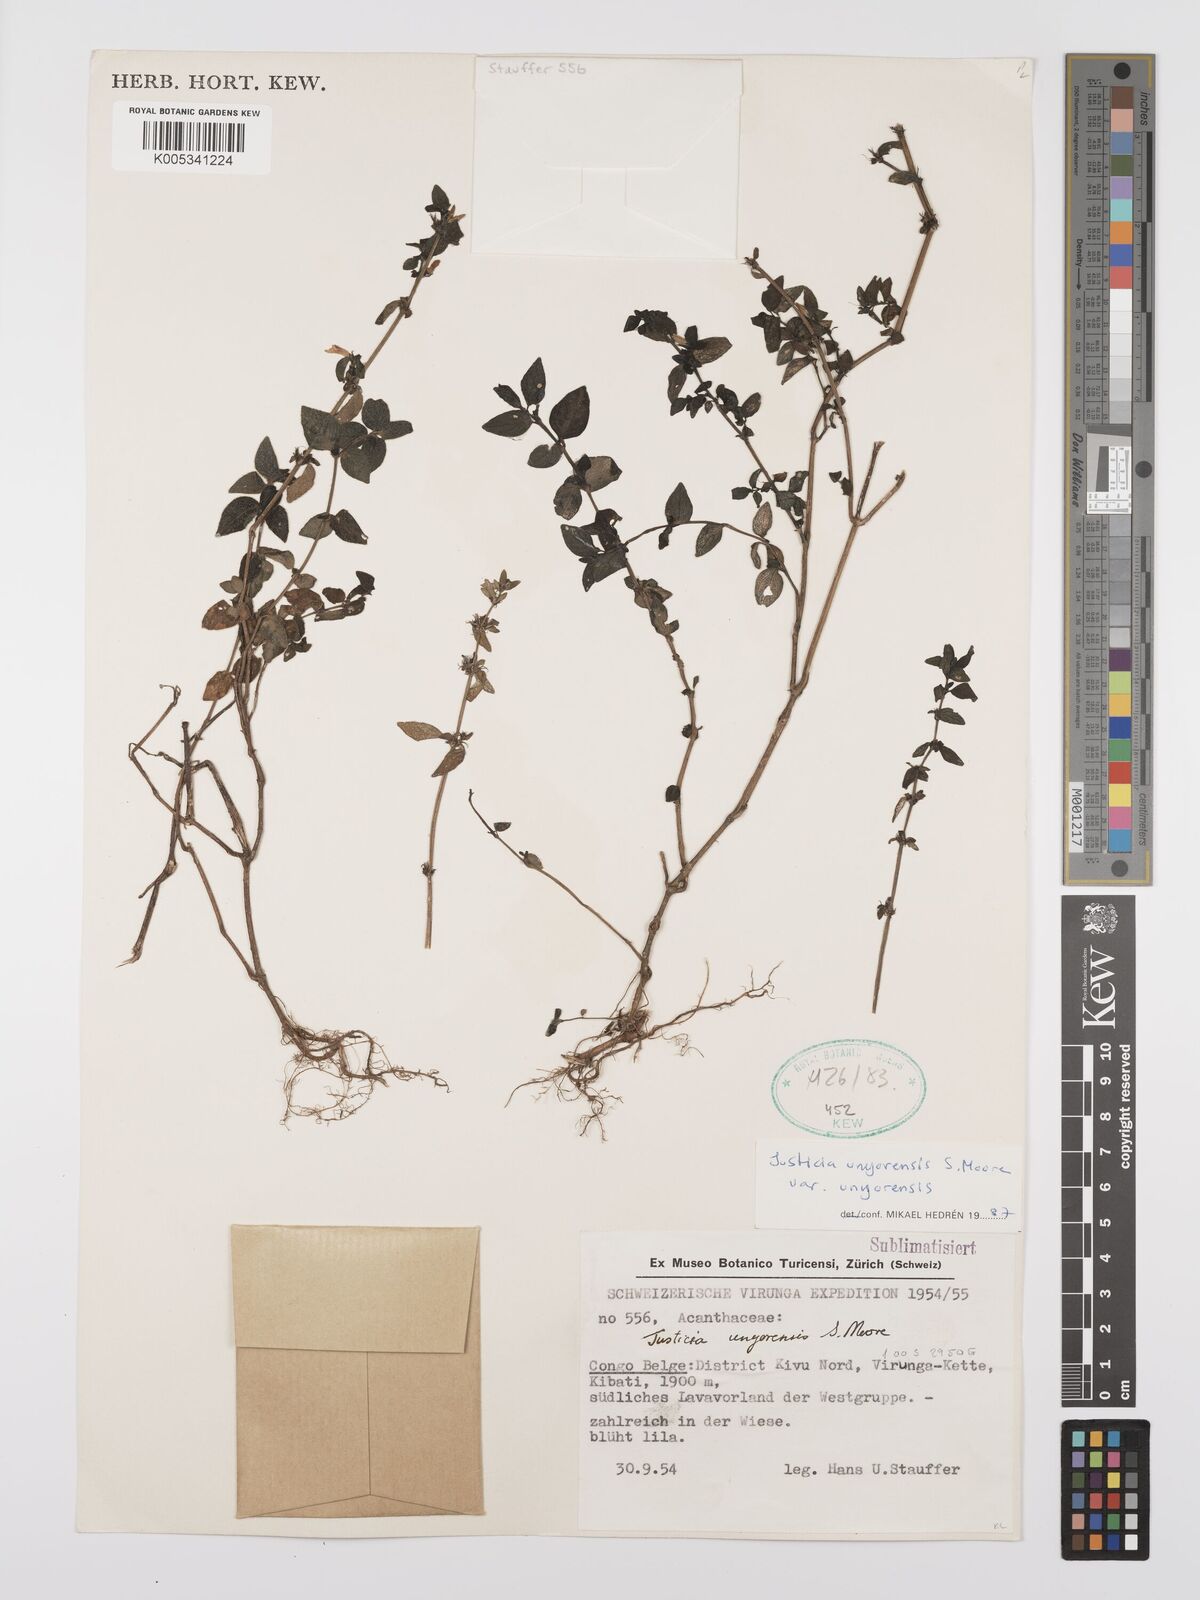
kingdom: Plantae
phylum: Tracheophyta
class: Magnoliopsida
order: Lamiales
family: Acanthaceae
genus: Justicia
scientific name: Justicia unyorensis
